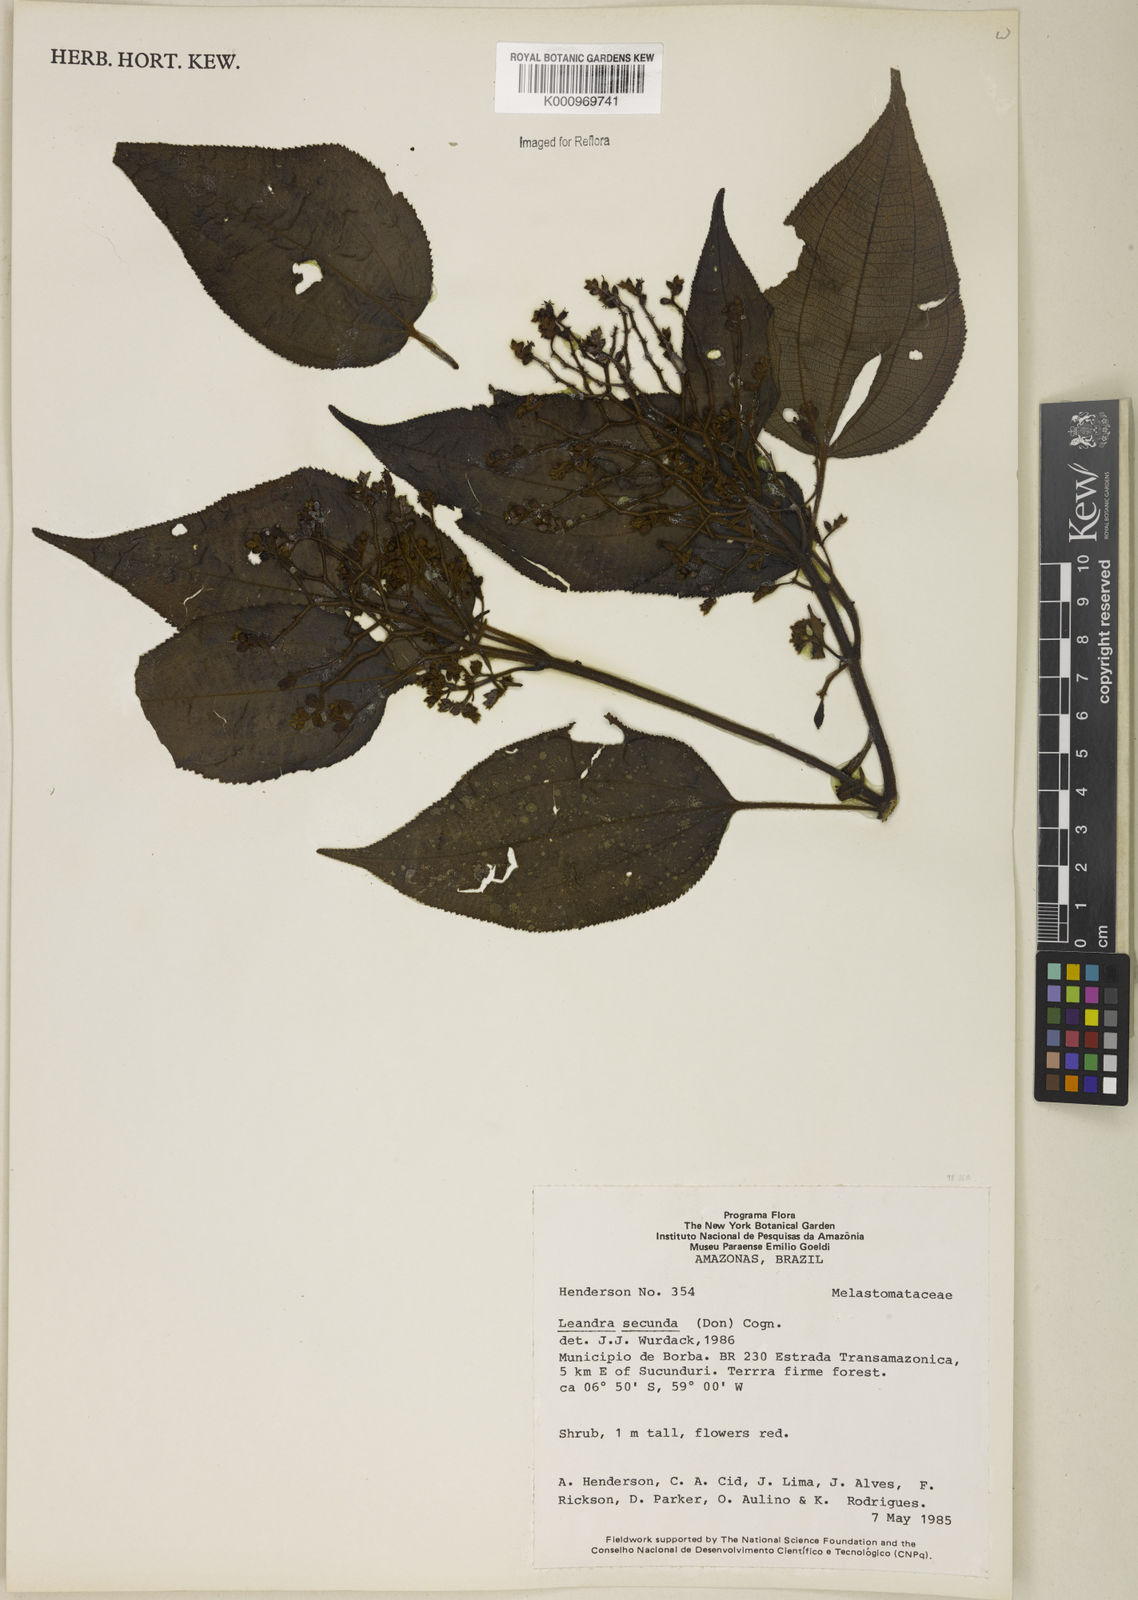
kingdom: Plantae
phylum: Tracheophyta
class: Magnoliopsida
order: Myrtales
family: Melastomataceae
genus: Miconia
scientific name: Miconia neosecunda
